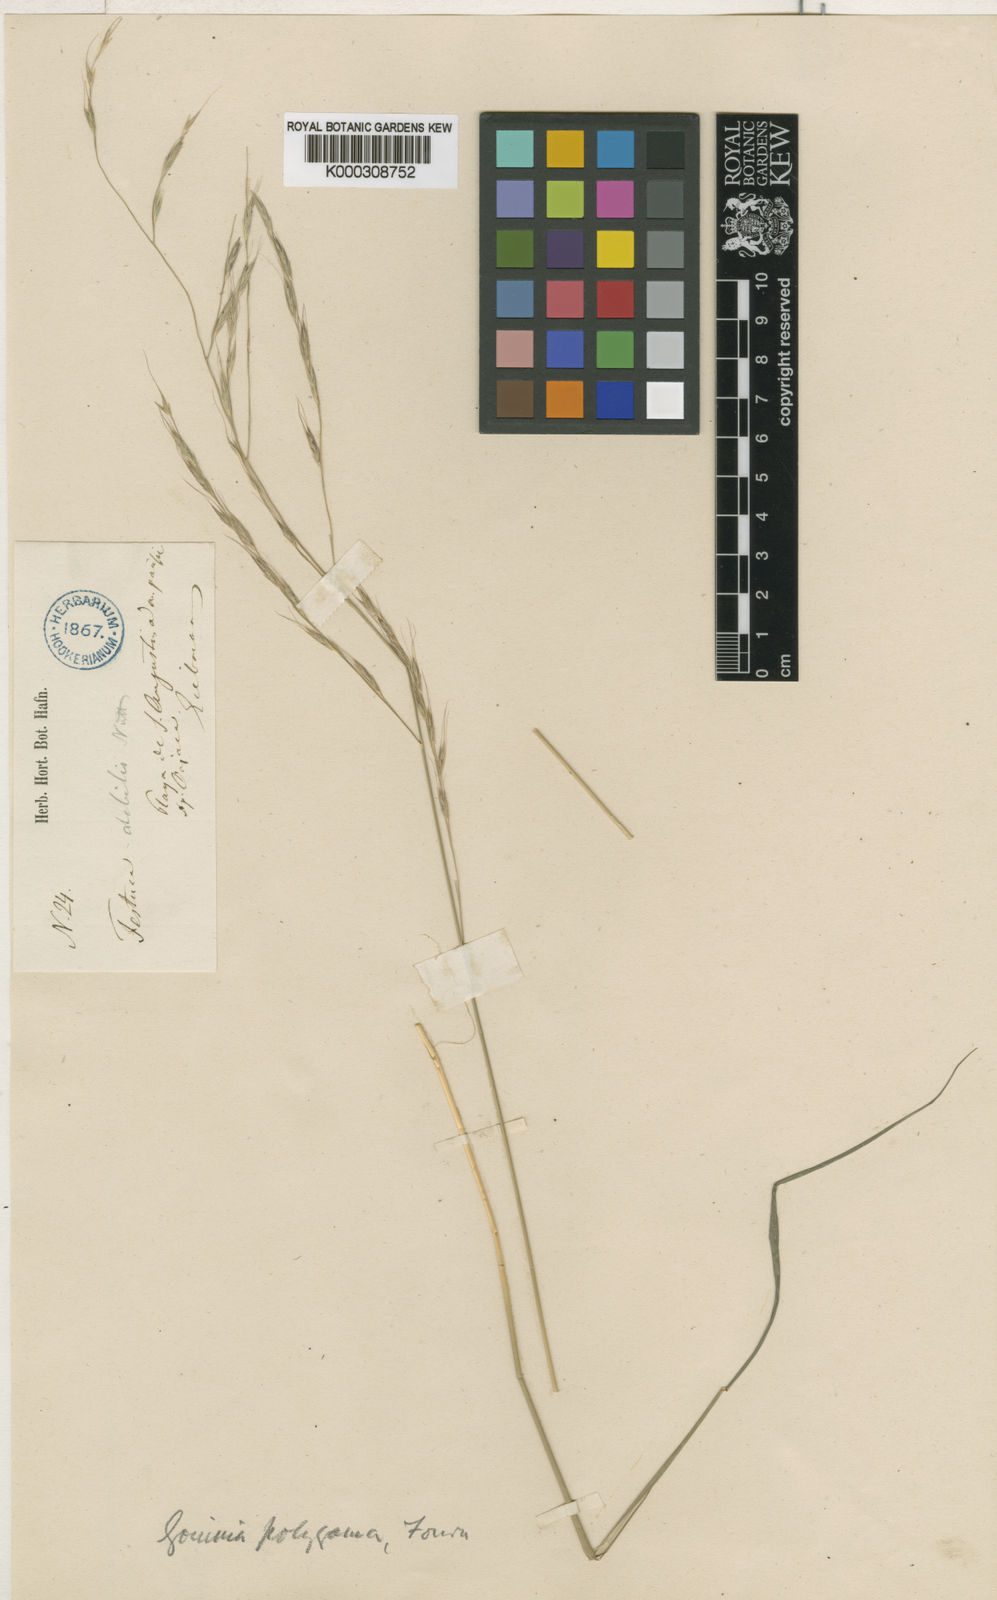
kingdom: Plantae
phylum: Tracheophyta
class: Liliopsida
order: Poales
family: Poaceae
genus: Gouinia
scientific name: Gouinia virgata
